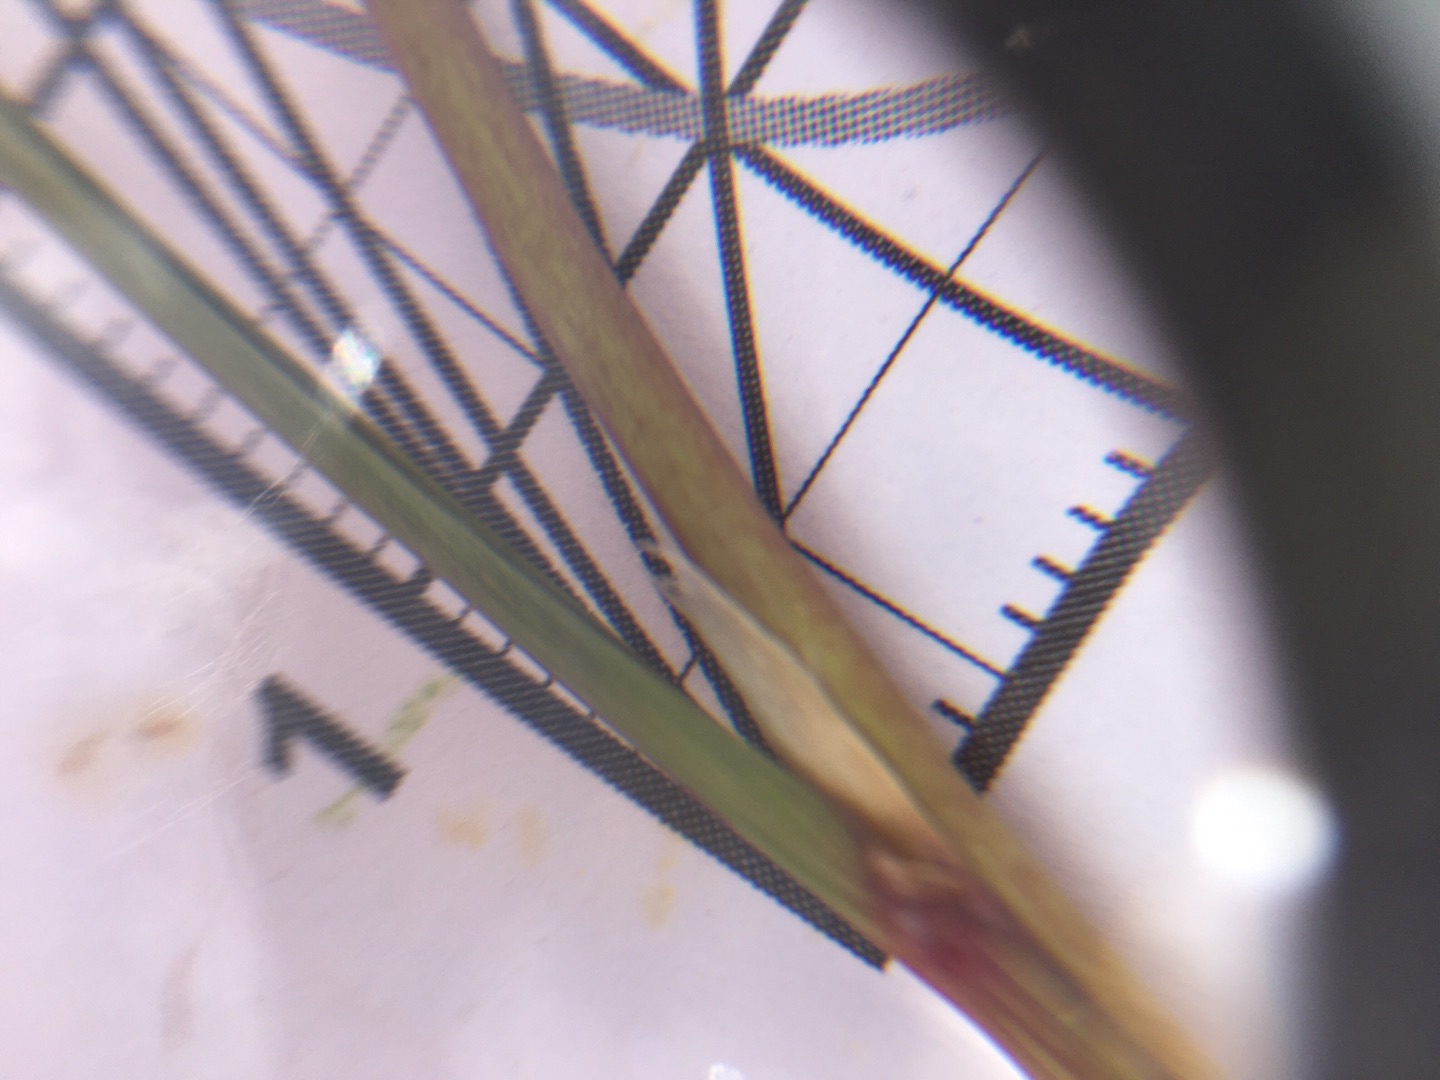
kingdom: Plantae
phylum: Tracheophyta
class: Liliopsida
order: Poales
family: Poaceae
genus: Calamagrostis
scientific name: Calamagrostis epigejos
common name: Bjerg-rørhvene
